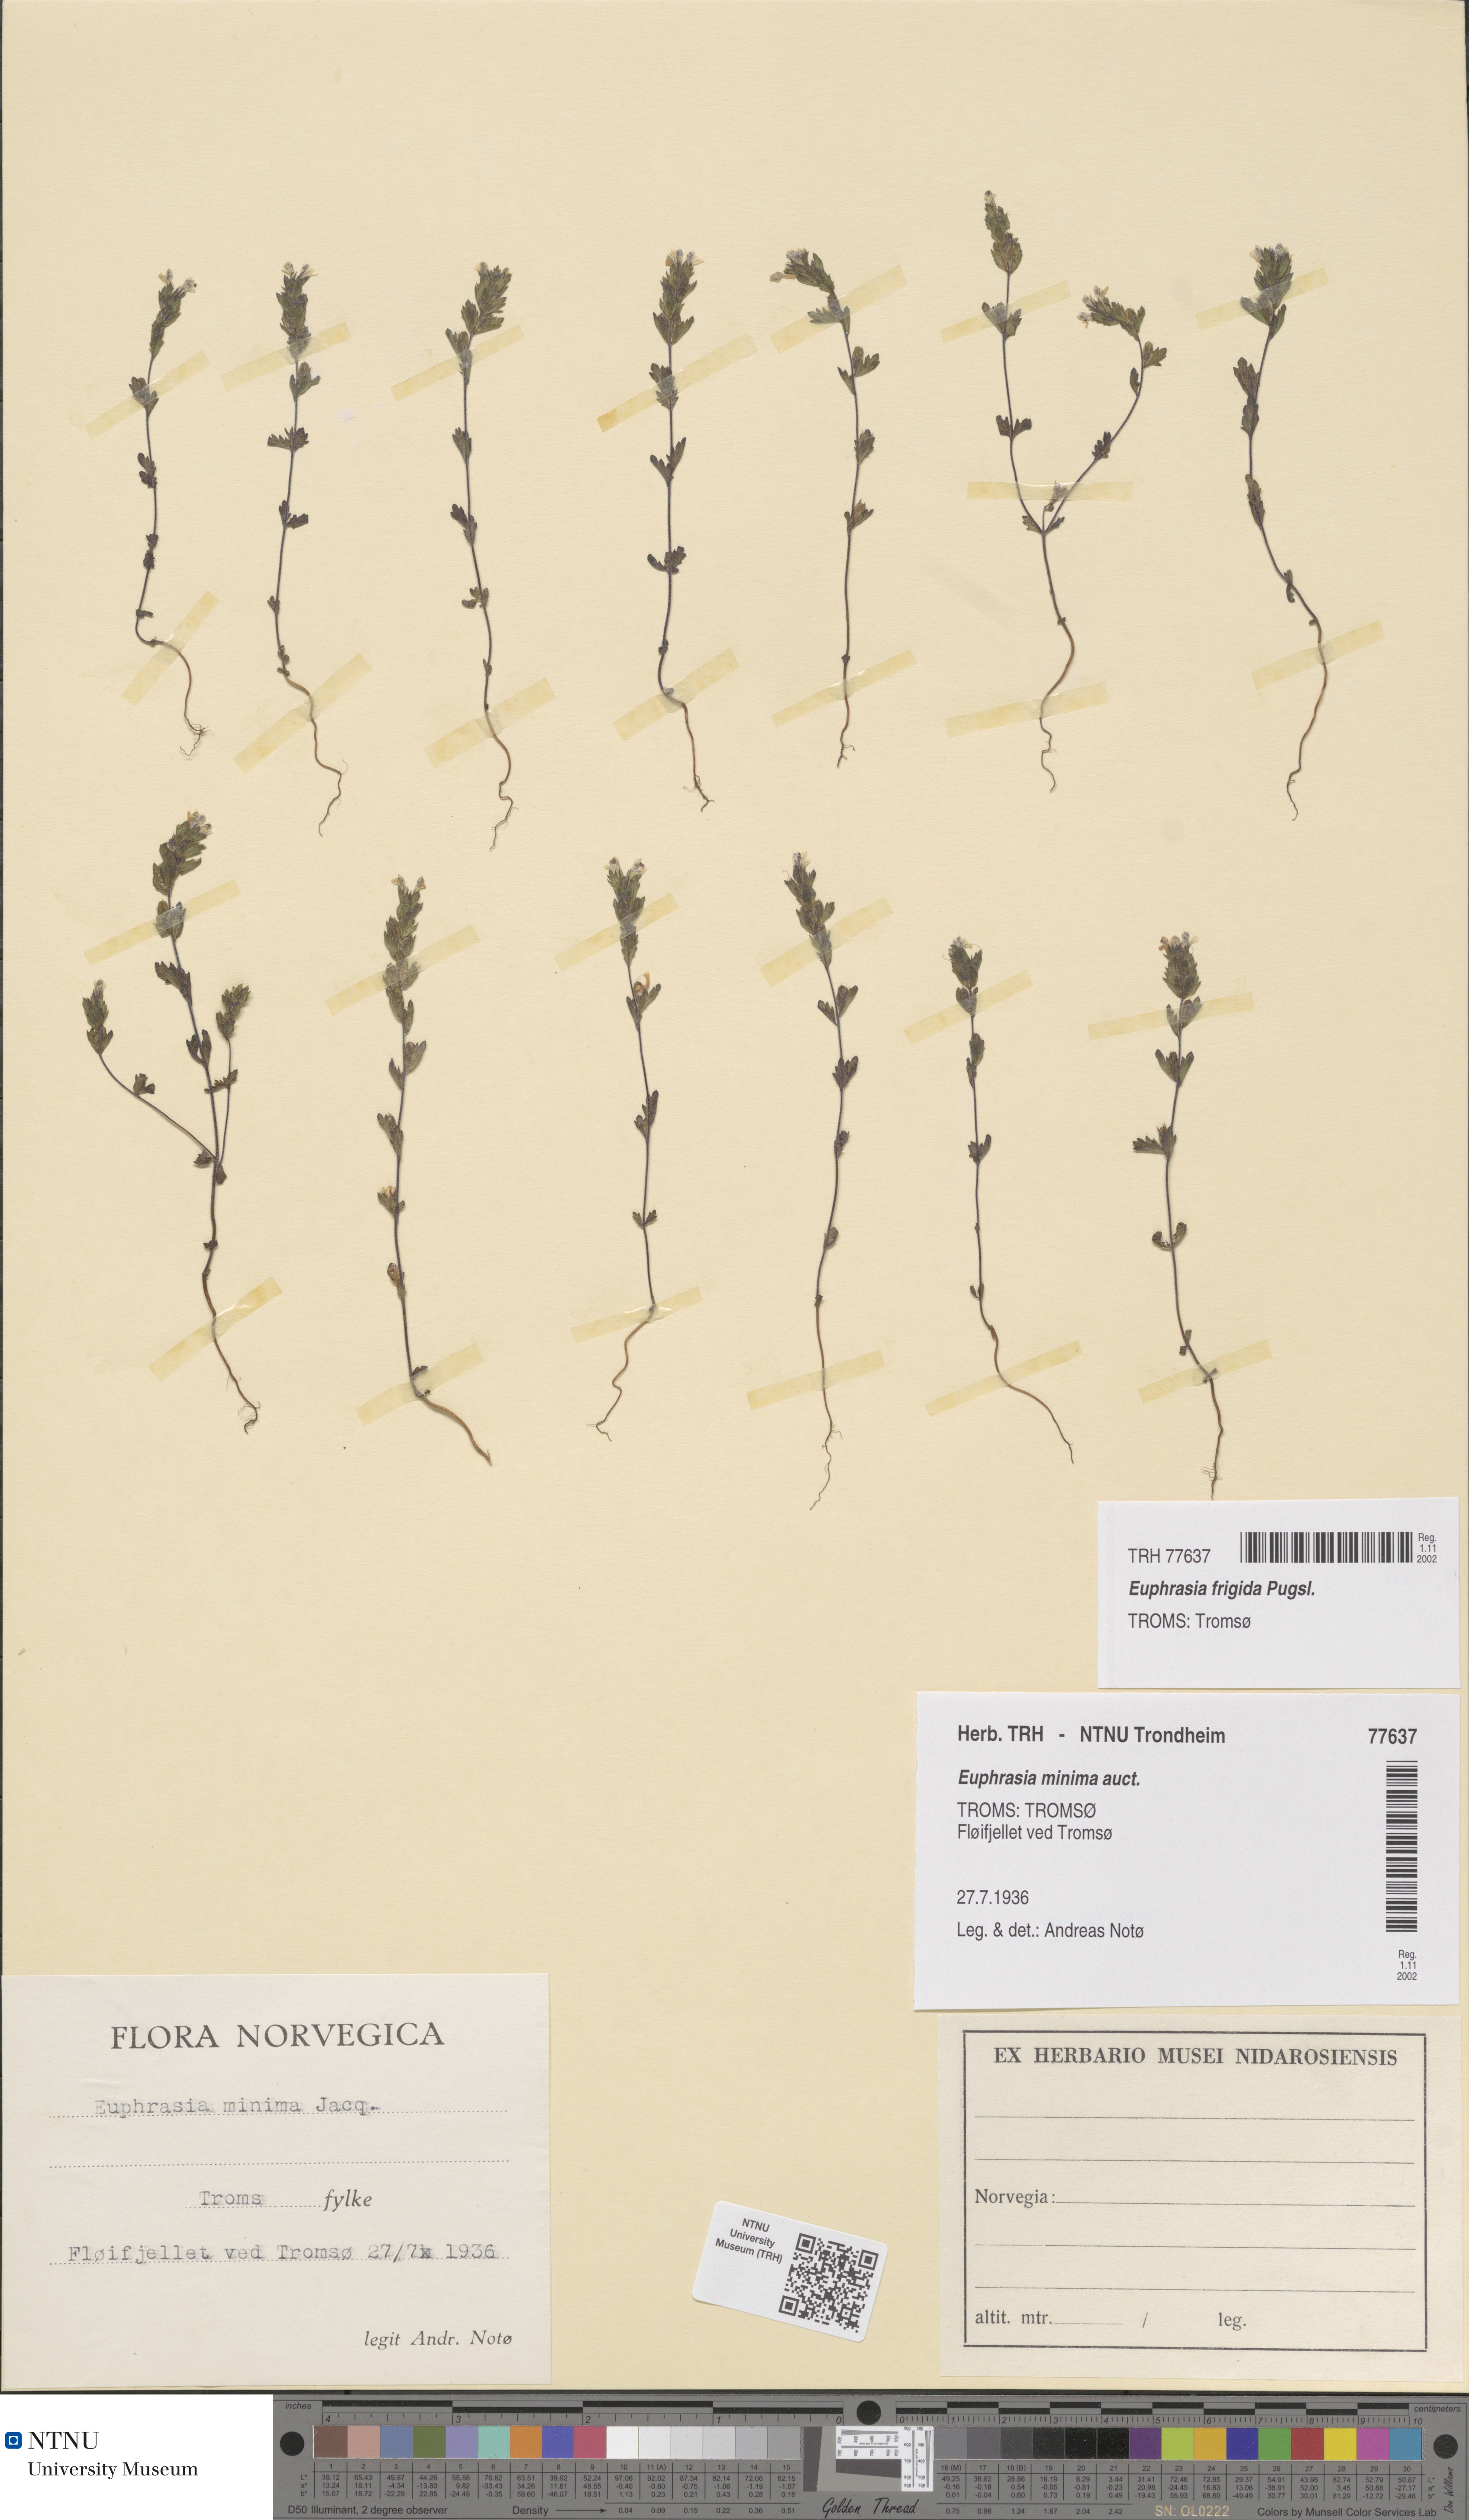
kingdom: Plantae
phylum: Tracheophyta
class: Magnoliopsida
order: Lamiales
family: Orobanchaceae
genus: Euphrasia
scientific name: Euphrasia wettsteinii
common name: Wettstein's eyebright
